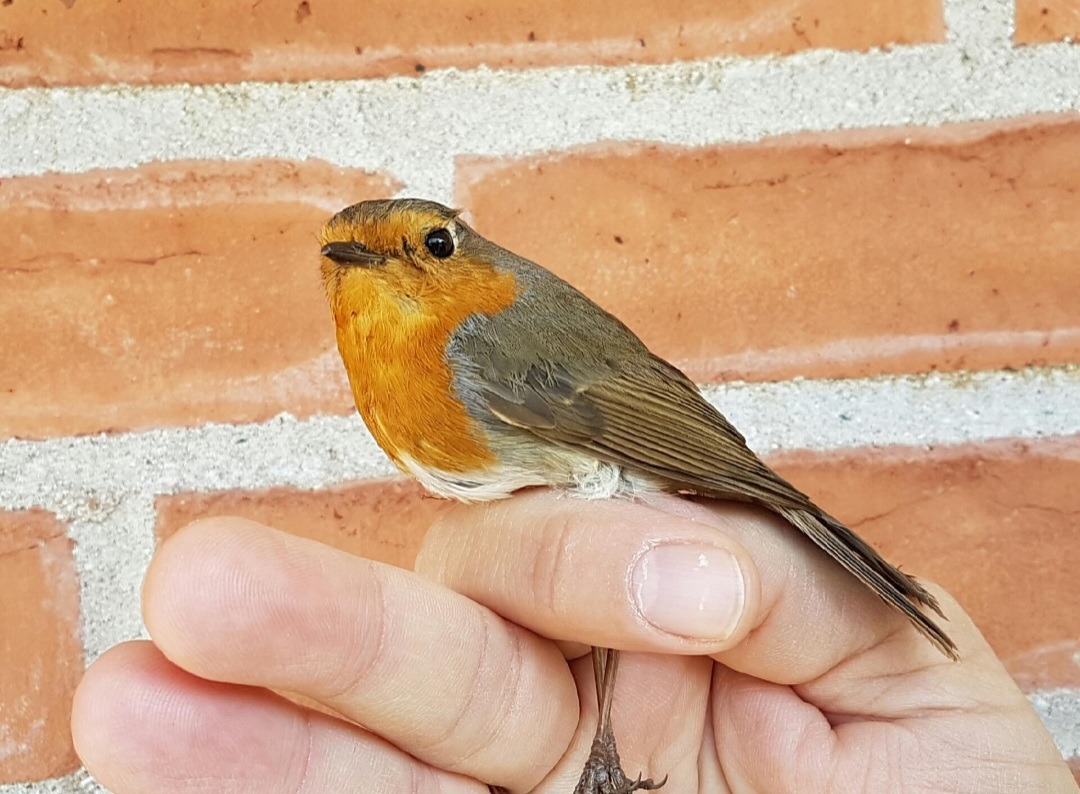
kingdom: Animalia
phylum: Chordata
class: Aves
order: Passeriformes
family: Muscicapidae
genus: Erithacus
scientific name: Erithacus rubecula
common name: Rødhals/rødkælk
